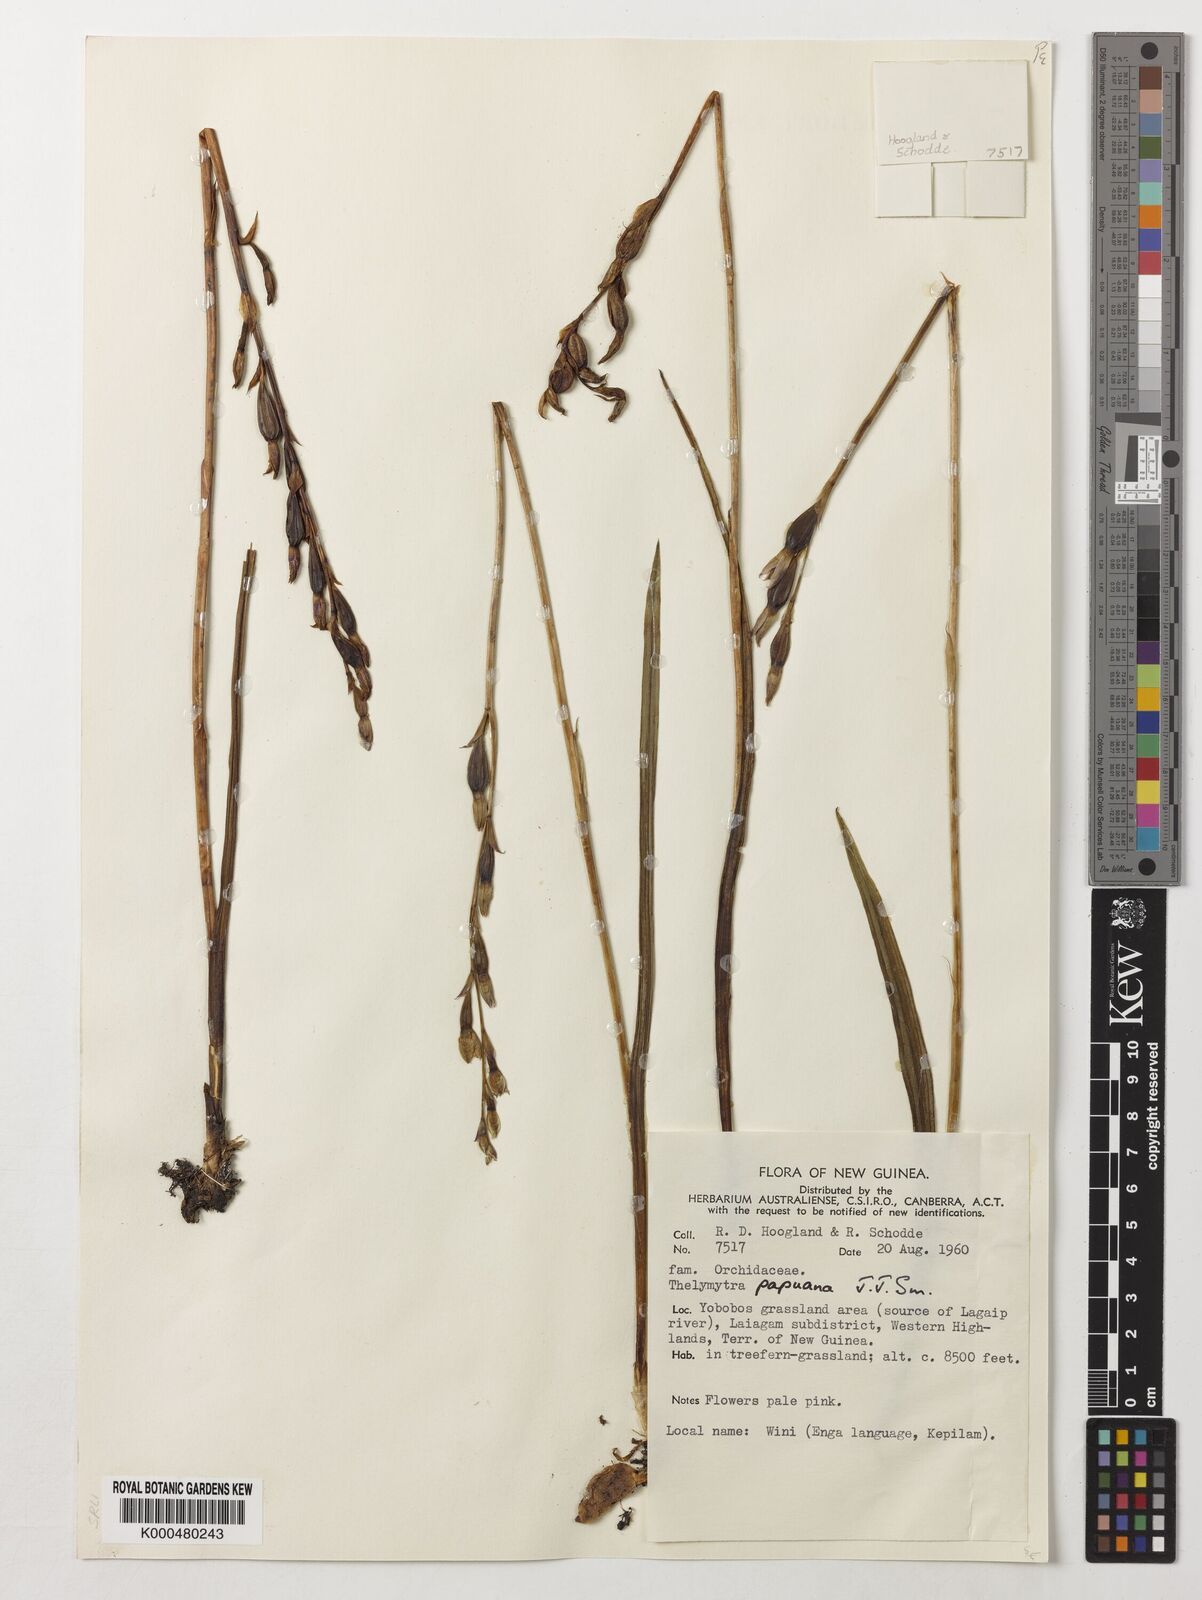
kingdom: Plantae
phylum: Tracheophyta
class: Liliopsida
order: Asparagales
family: Orchidaceae
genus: Thelymitra
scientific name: Thelymitra papuana
